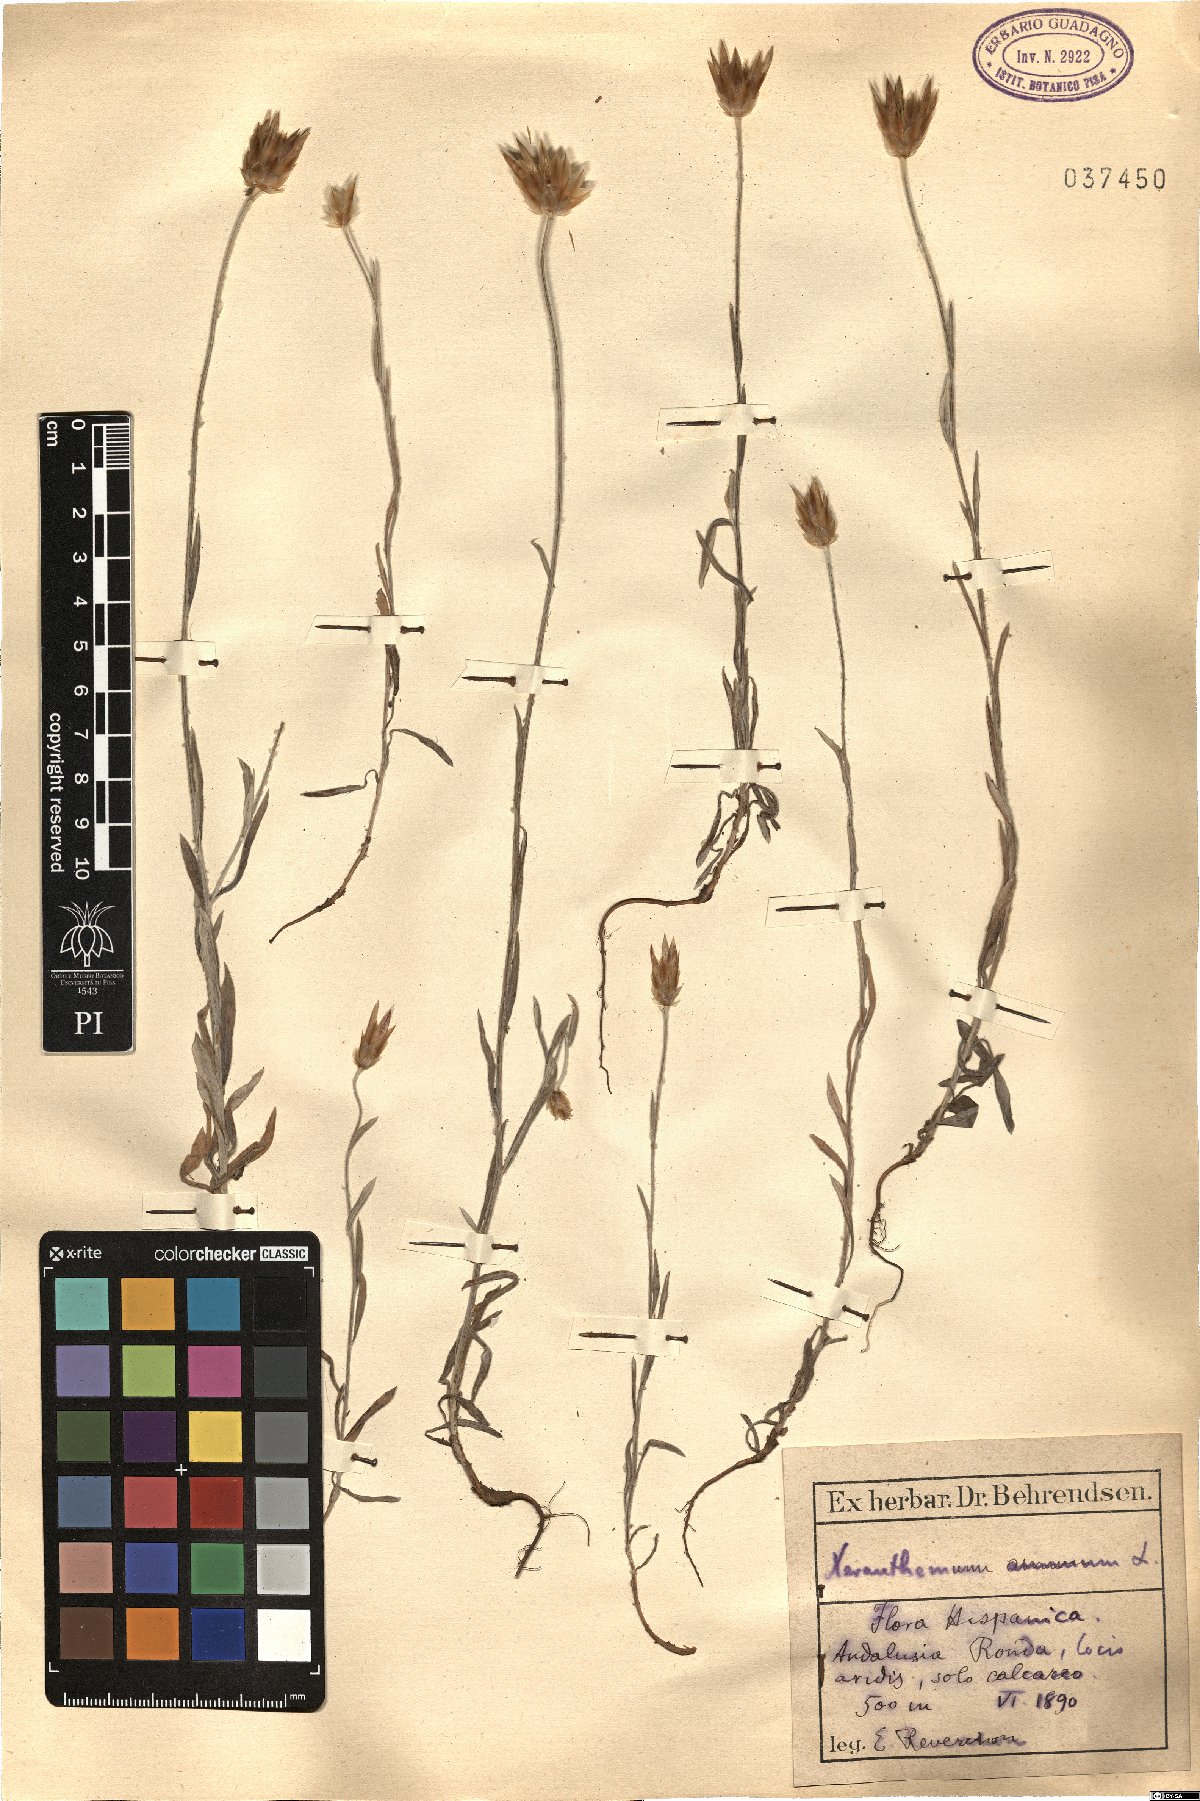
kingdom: Plantae
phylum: Tracheophyta
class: Magnoliopsida
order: Asterales
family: Asteraceae
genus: Xeranthemum
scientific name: Xeranthemum annuum
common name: Immortelle
